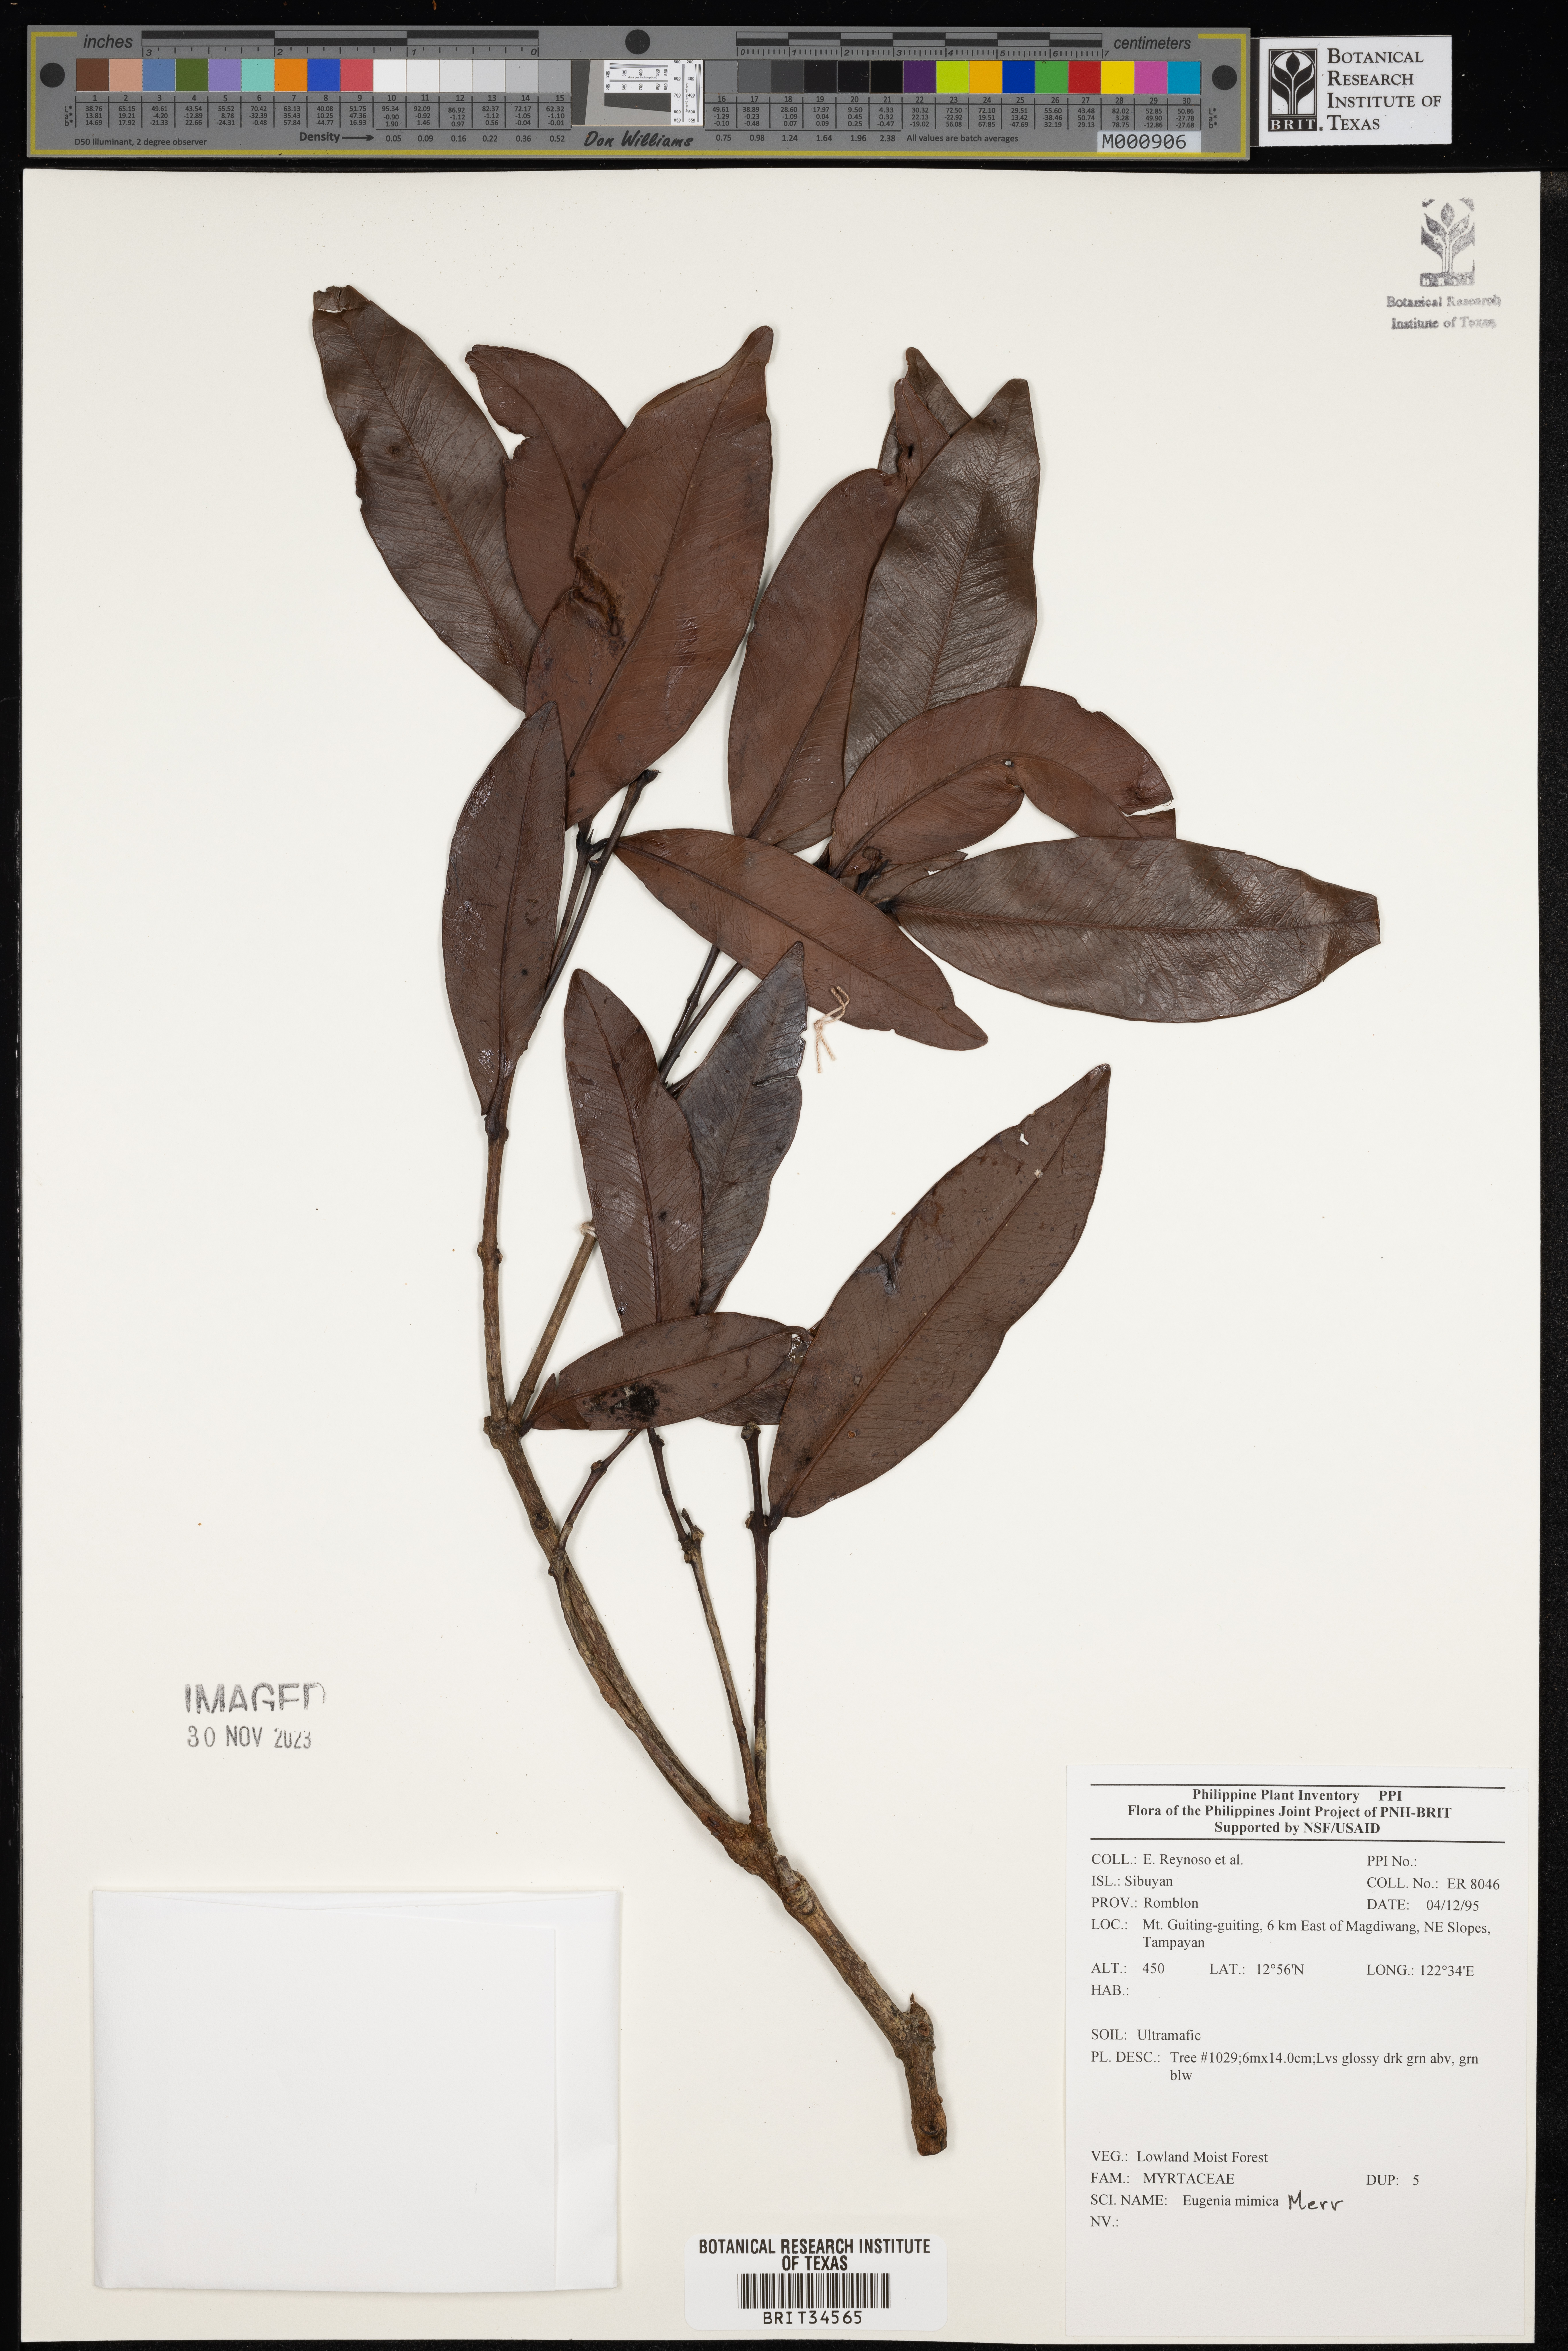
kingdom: Plantae
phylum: Tracheophyta
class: Magnoliopsida
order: Myrtales
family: Myrtaceae
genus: Eugenia
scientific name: Eugenia
